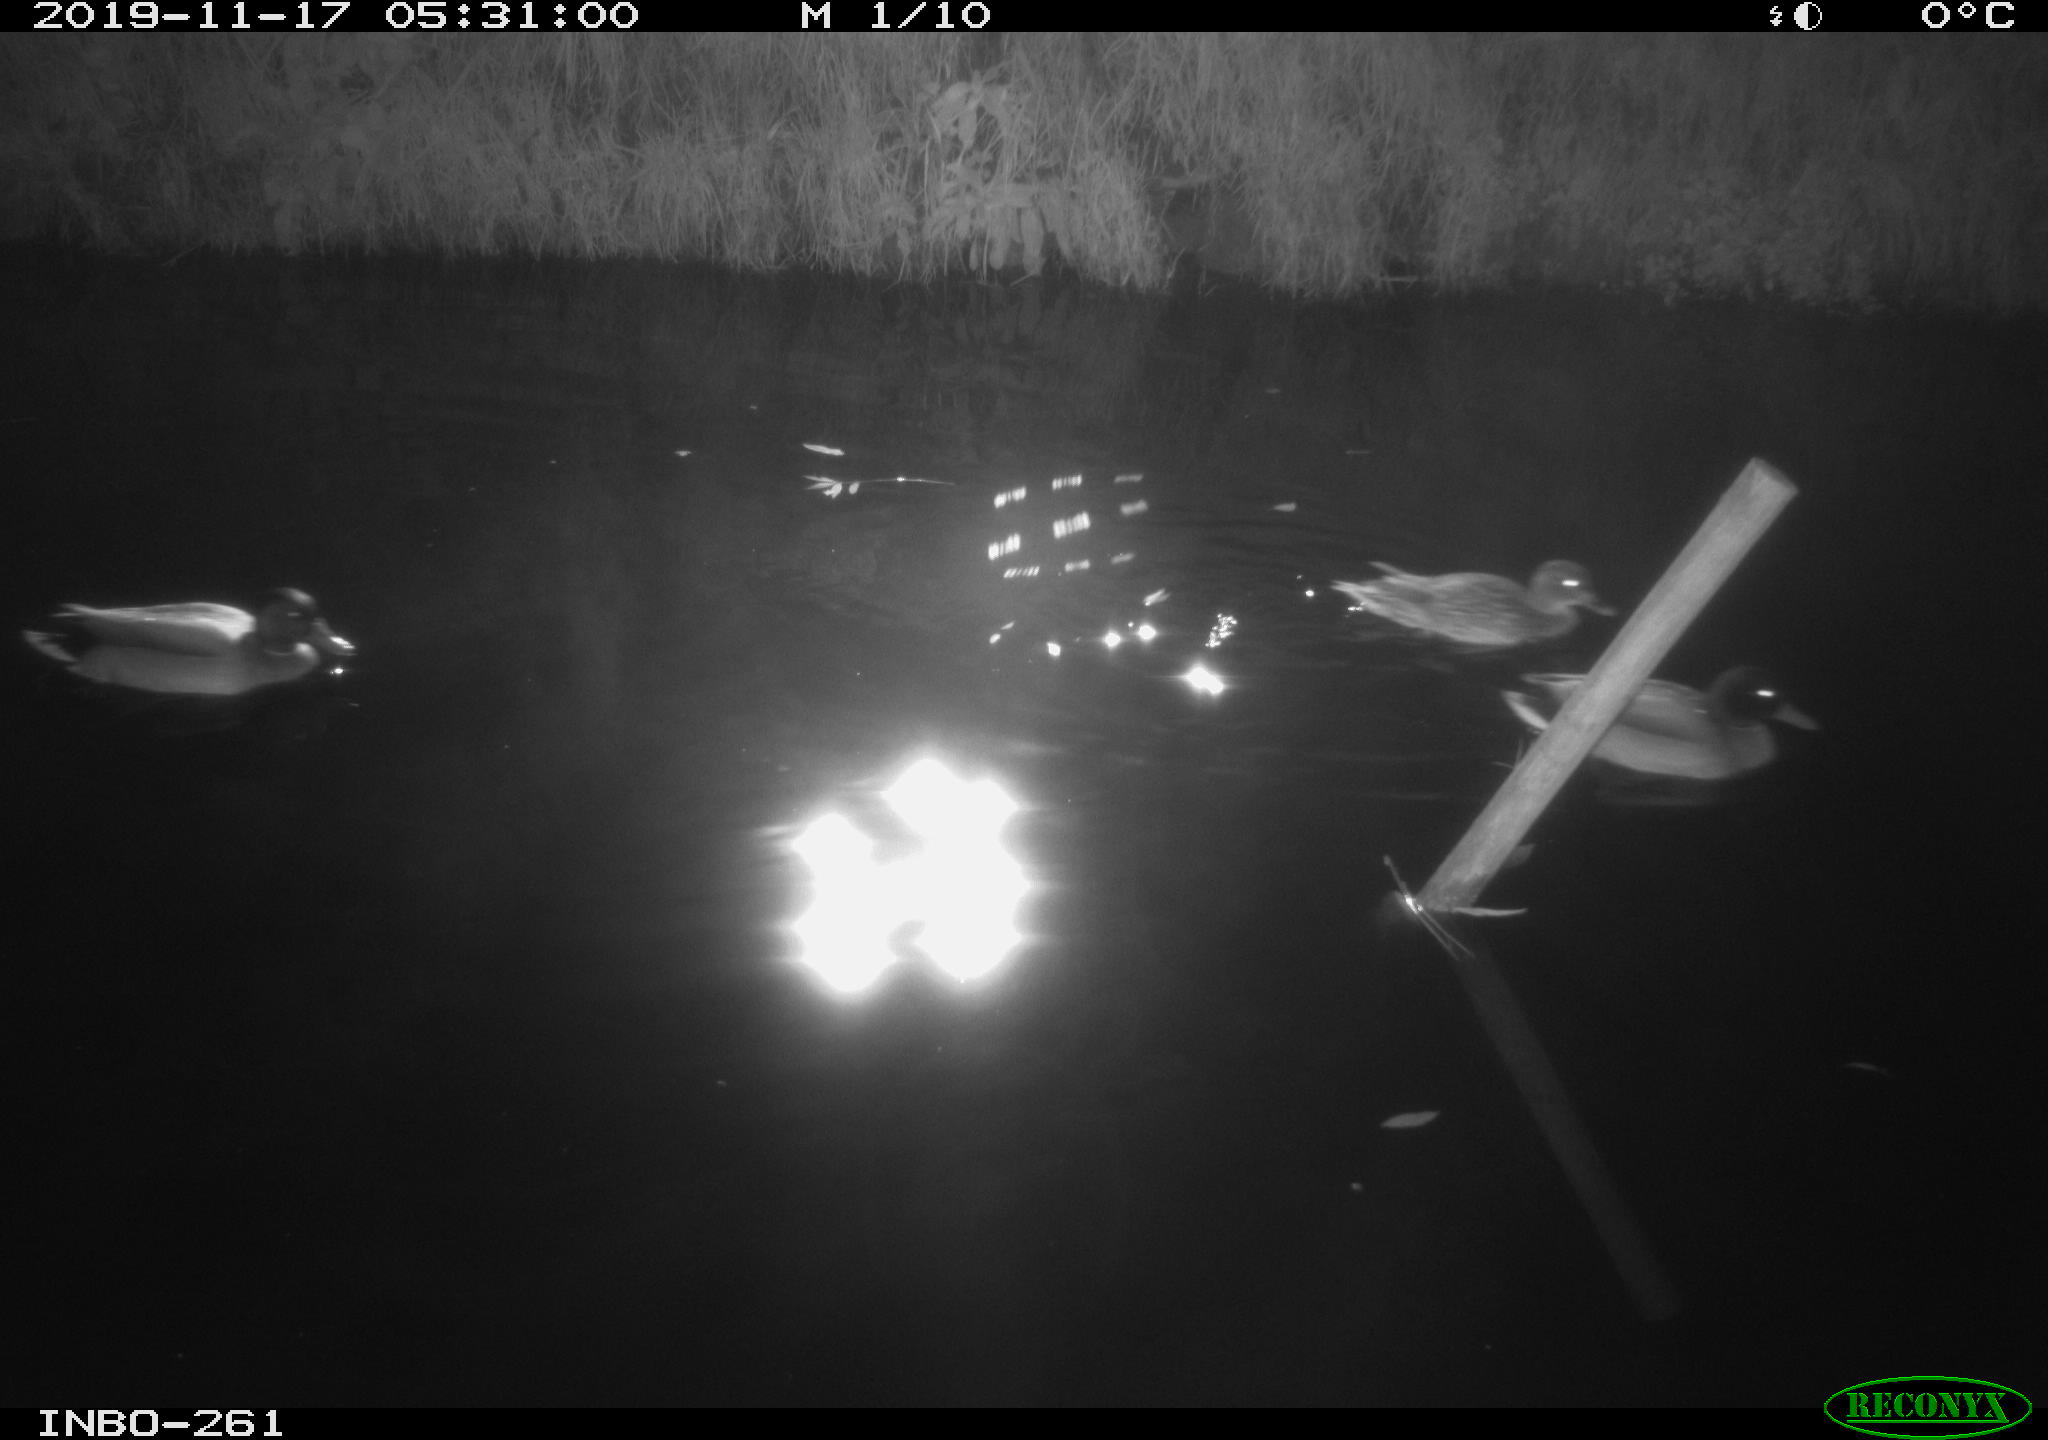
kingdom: Animalia
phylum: Chordata
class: Aves
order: Anseriformes
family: Anatidae
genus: Anas
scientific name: Anas platyrhynchos
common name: Mallard
